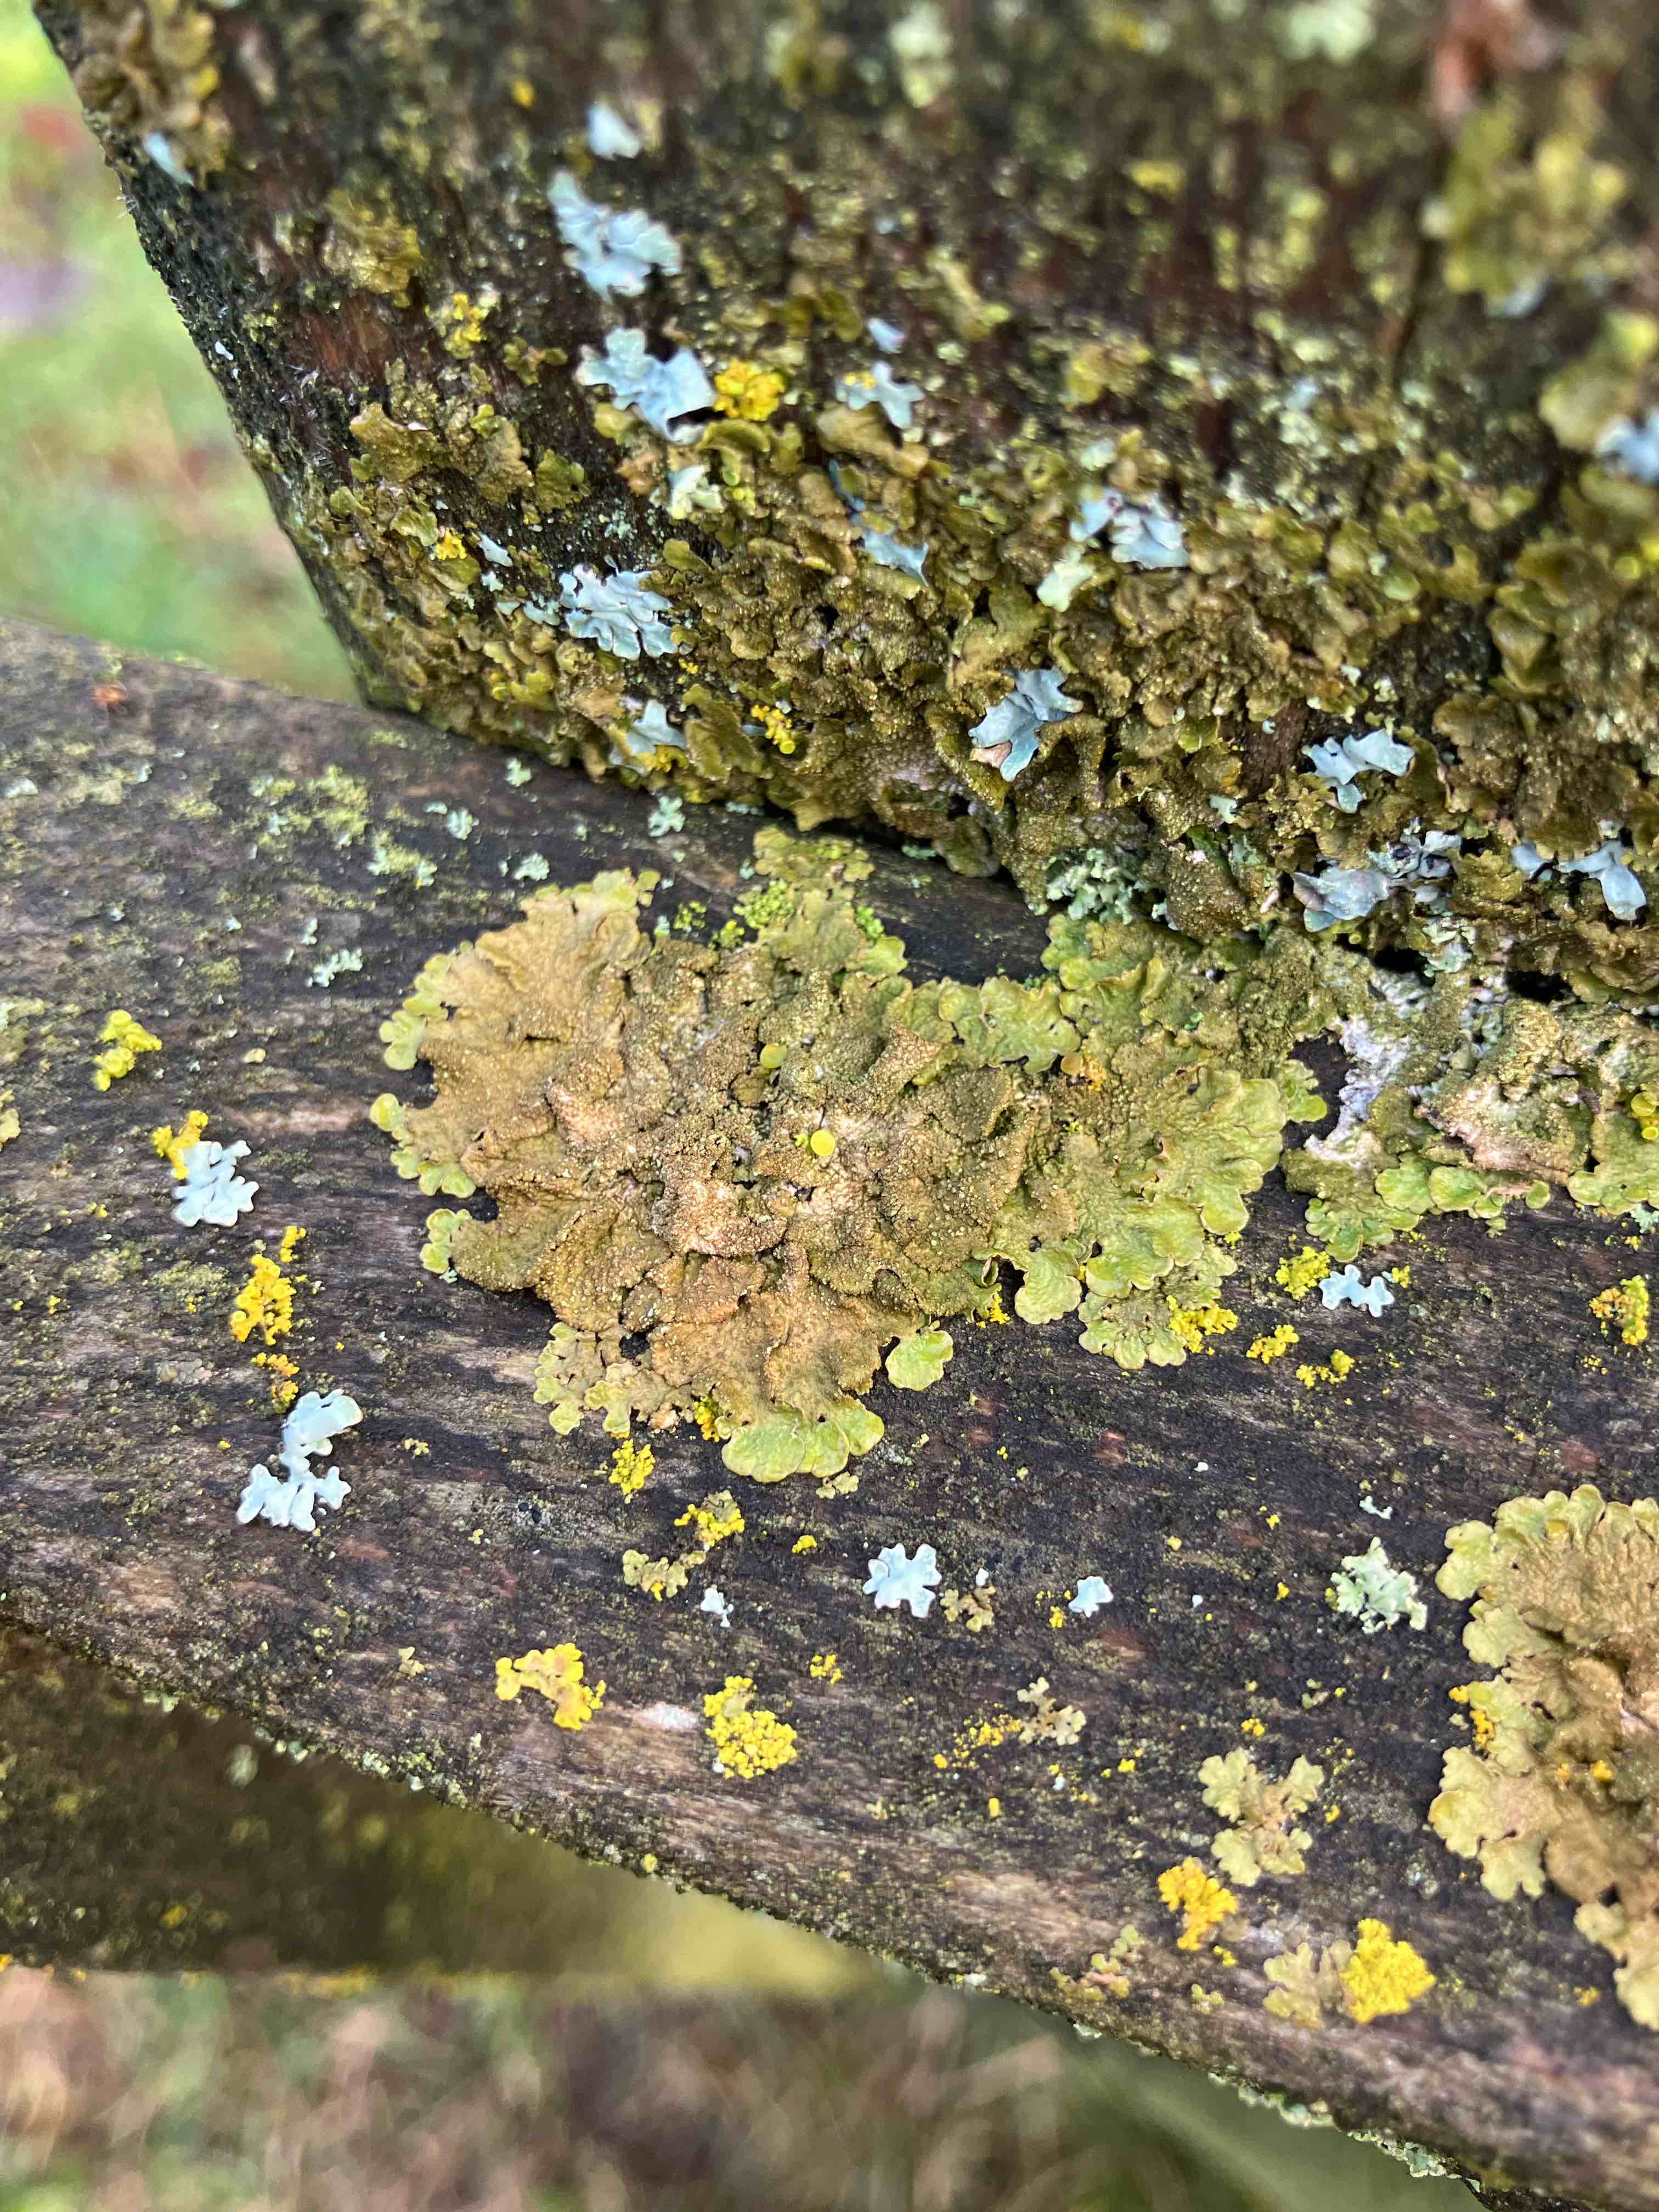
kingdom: Fungi
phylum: Ascomycota
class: Lecanoromycetes
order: Lecanorales
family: Parmeliaceae
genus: Melanelixia
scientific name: Melanelixia subaurifera
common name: guldpudret skållav
